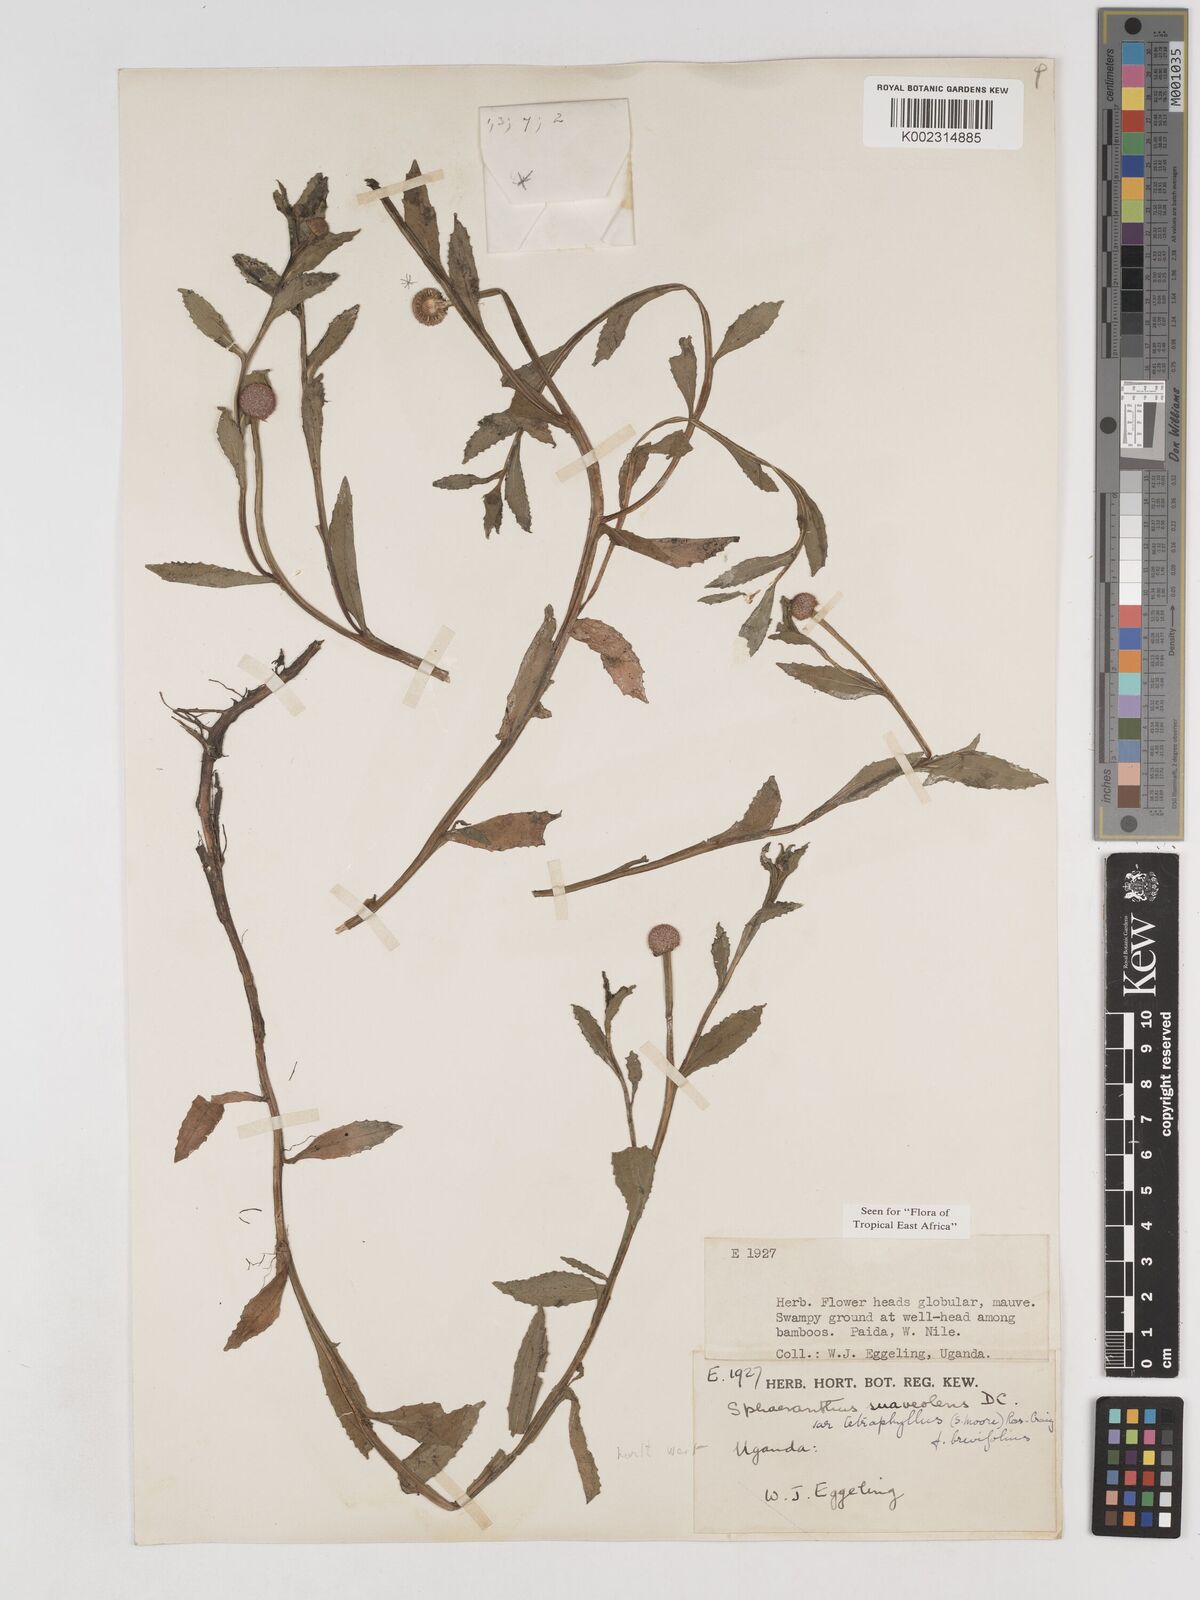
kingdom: Plantae
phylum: Tracheophyta
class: Magnoliopsida
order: Asterales
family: Asteraceae
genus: Sphaeranthus
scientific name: Sphaeranthus suaveolens
